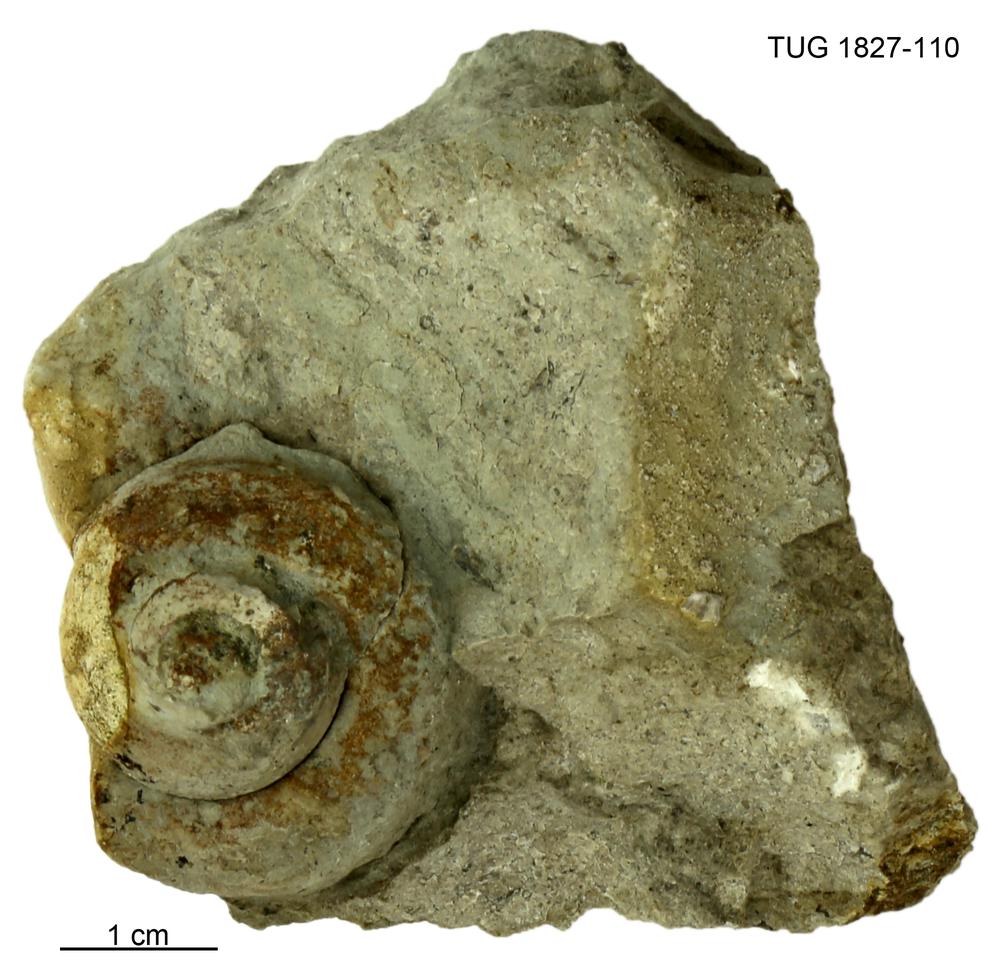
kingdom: Animalia
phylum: Mollusca
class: Gastropoda
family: Helicotomidae
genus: Boucotspira
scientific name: Boucotspira Euomphalus carinifer
